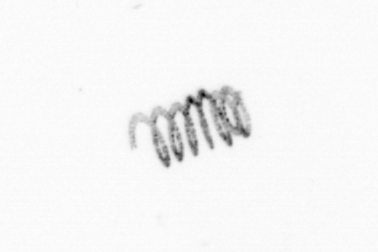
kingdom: Chromista
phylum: Ochrophyta
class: Bacillariophyceae
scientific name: Bacillariophyceae
